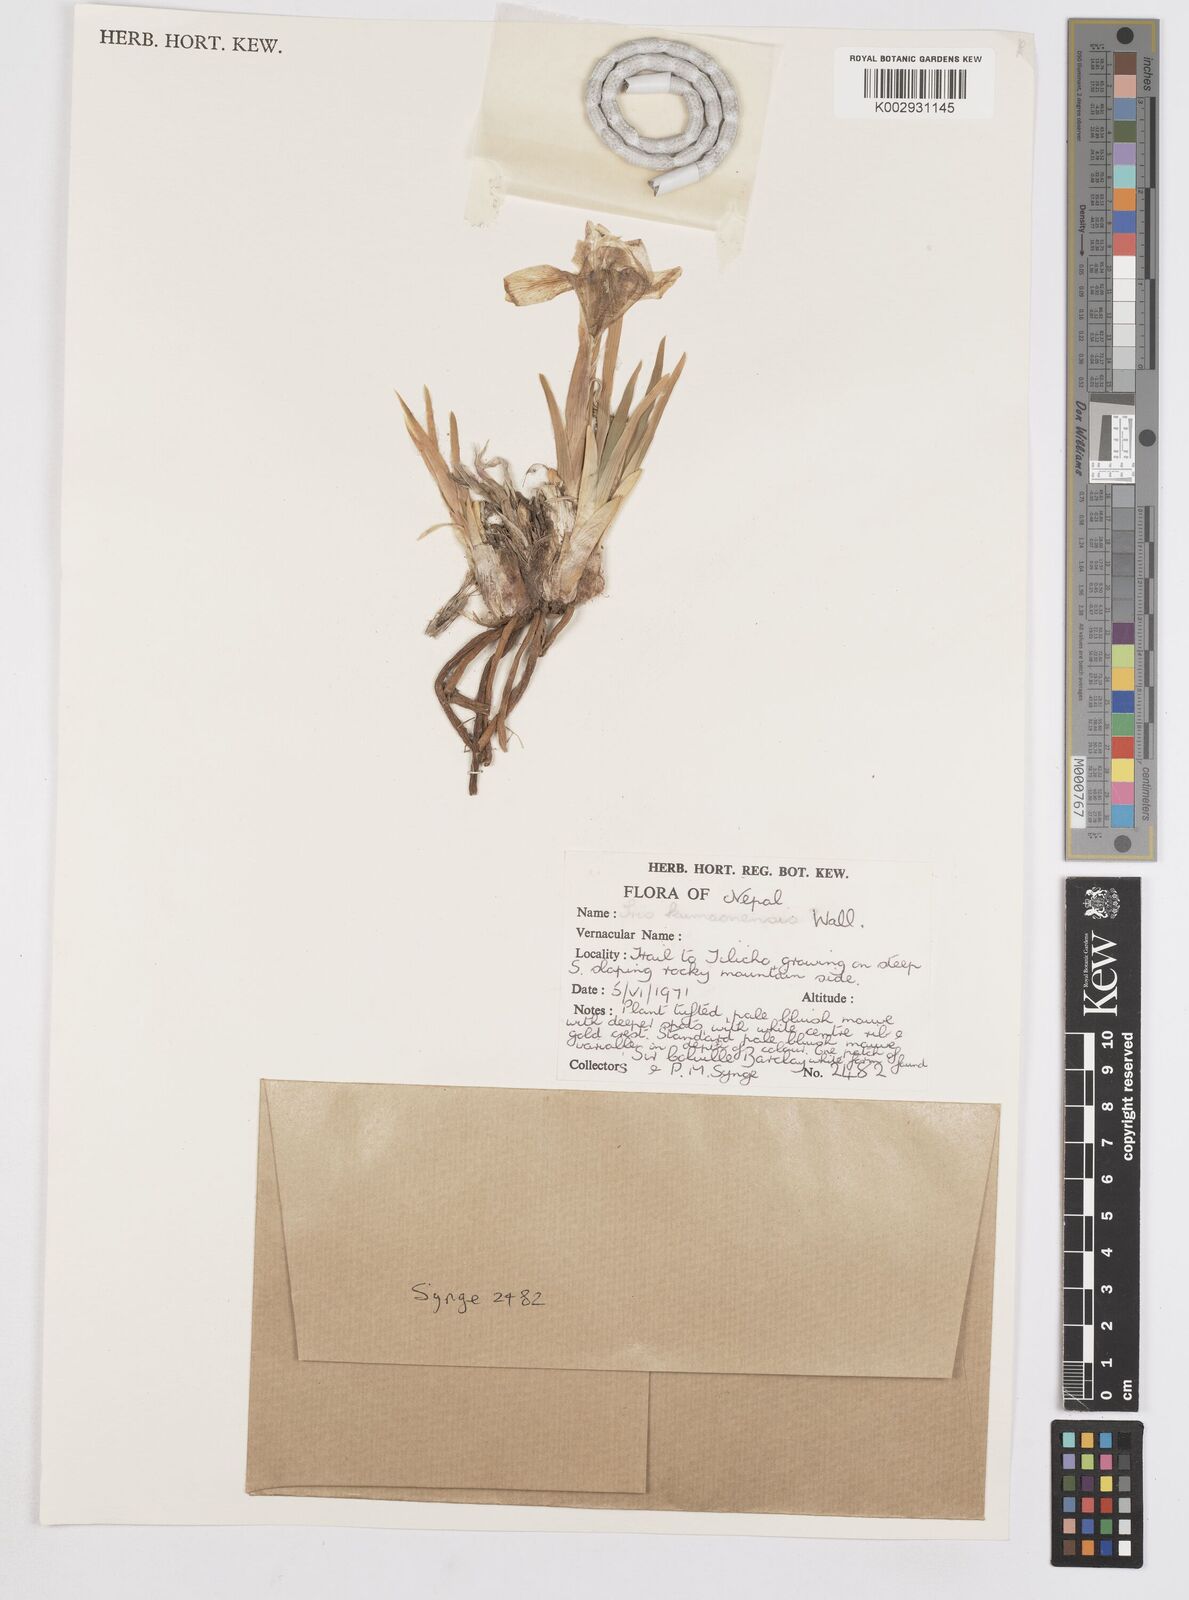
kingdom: Plantae
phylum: Tracheophyta
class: Liliopsida
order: Asparagales
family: Iridaceae
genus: Iris
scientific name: Iris kemaonensis
